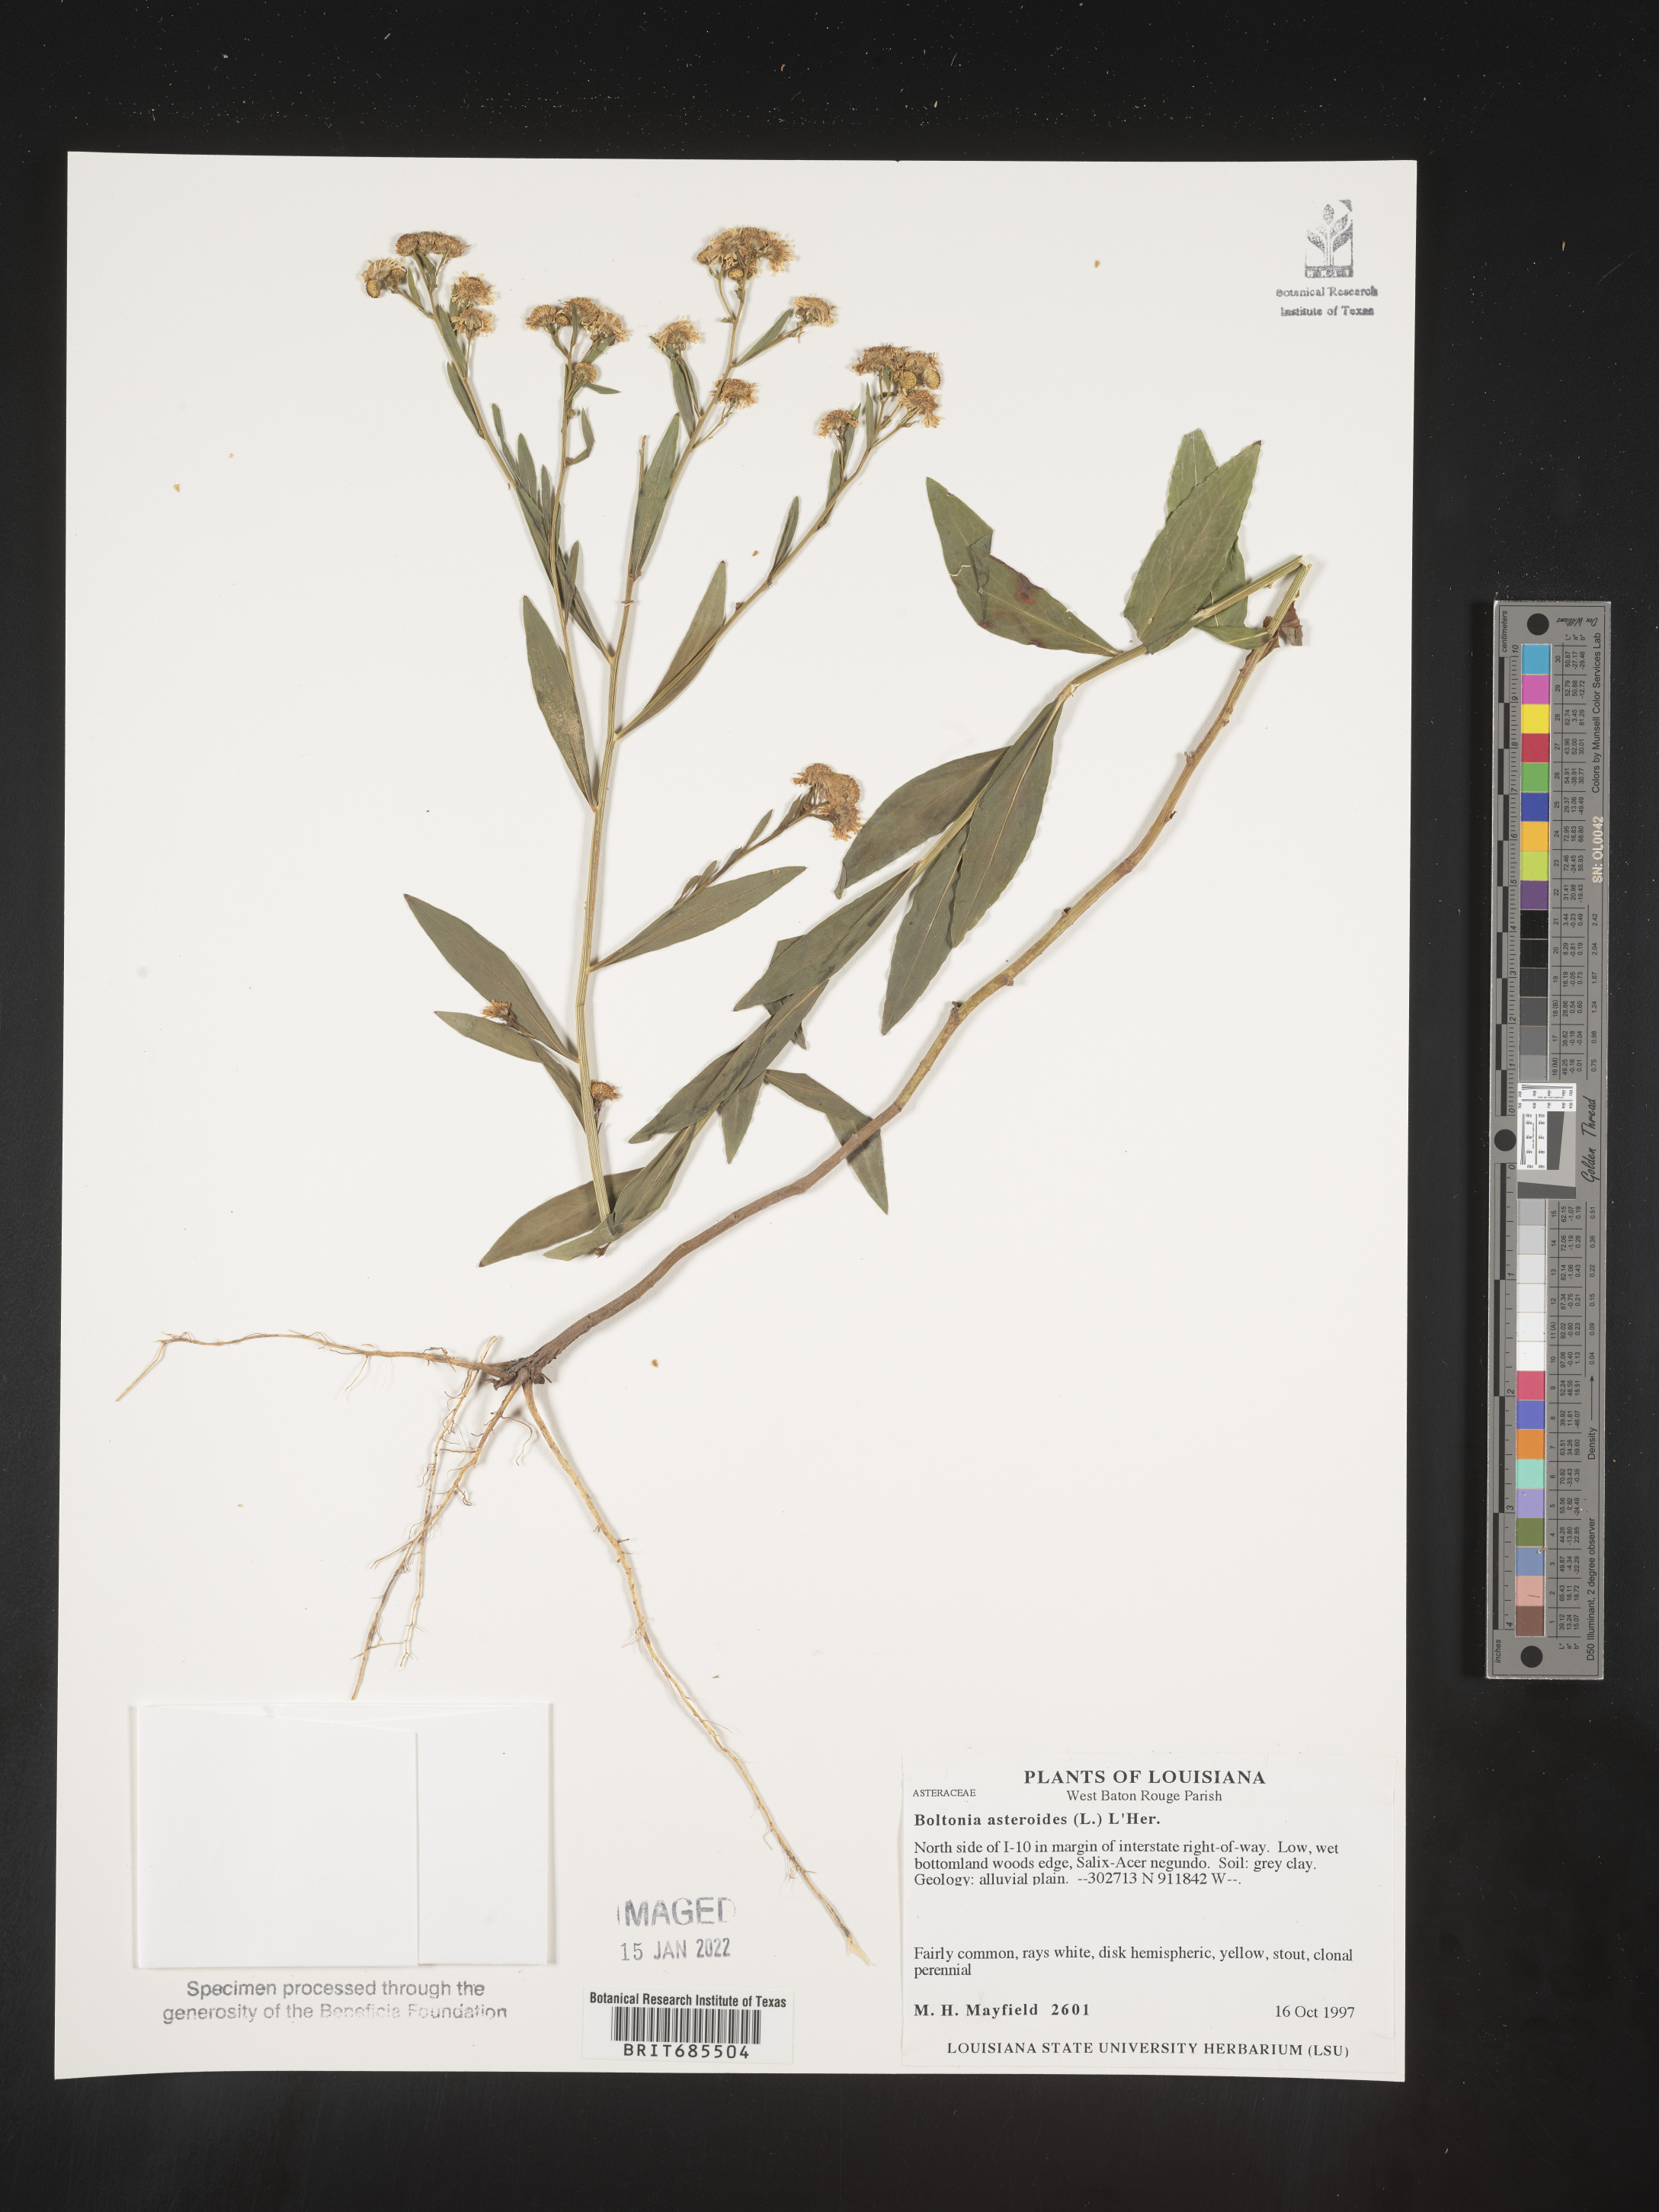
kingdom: Plantae
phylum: Tracheophyta
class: Magnoliopsida
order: Asterales
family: Asteraceae
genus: Boltonia
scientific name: Boltonia asteroides
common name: False chamomile
